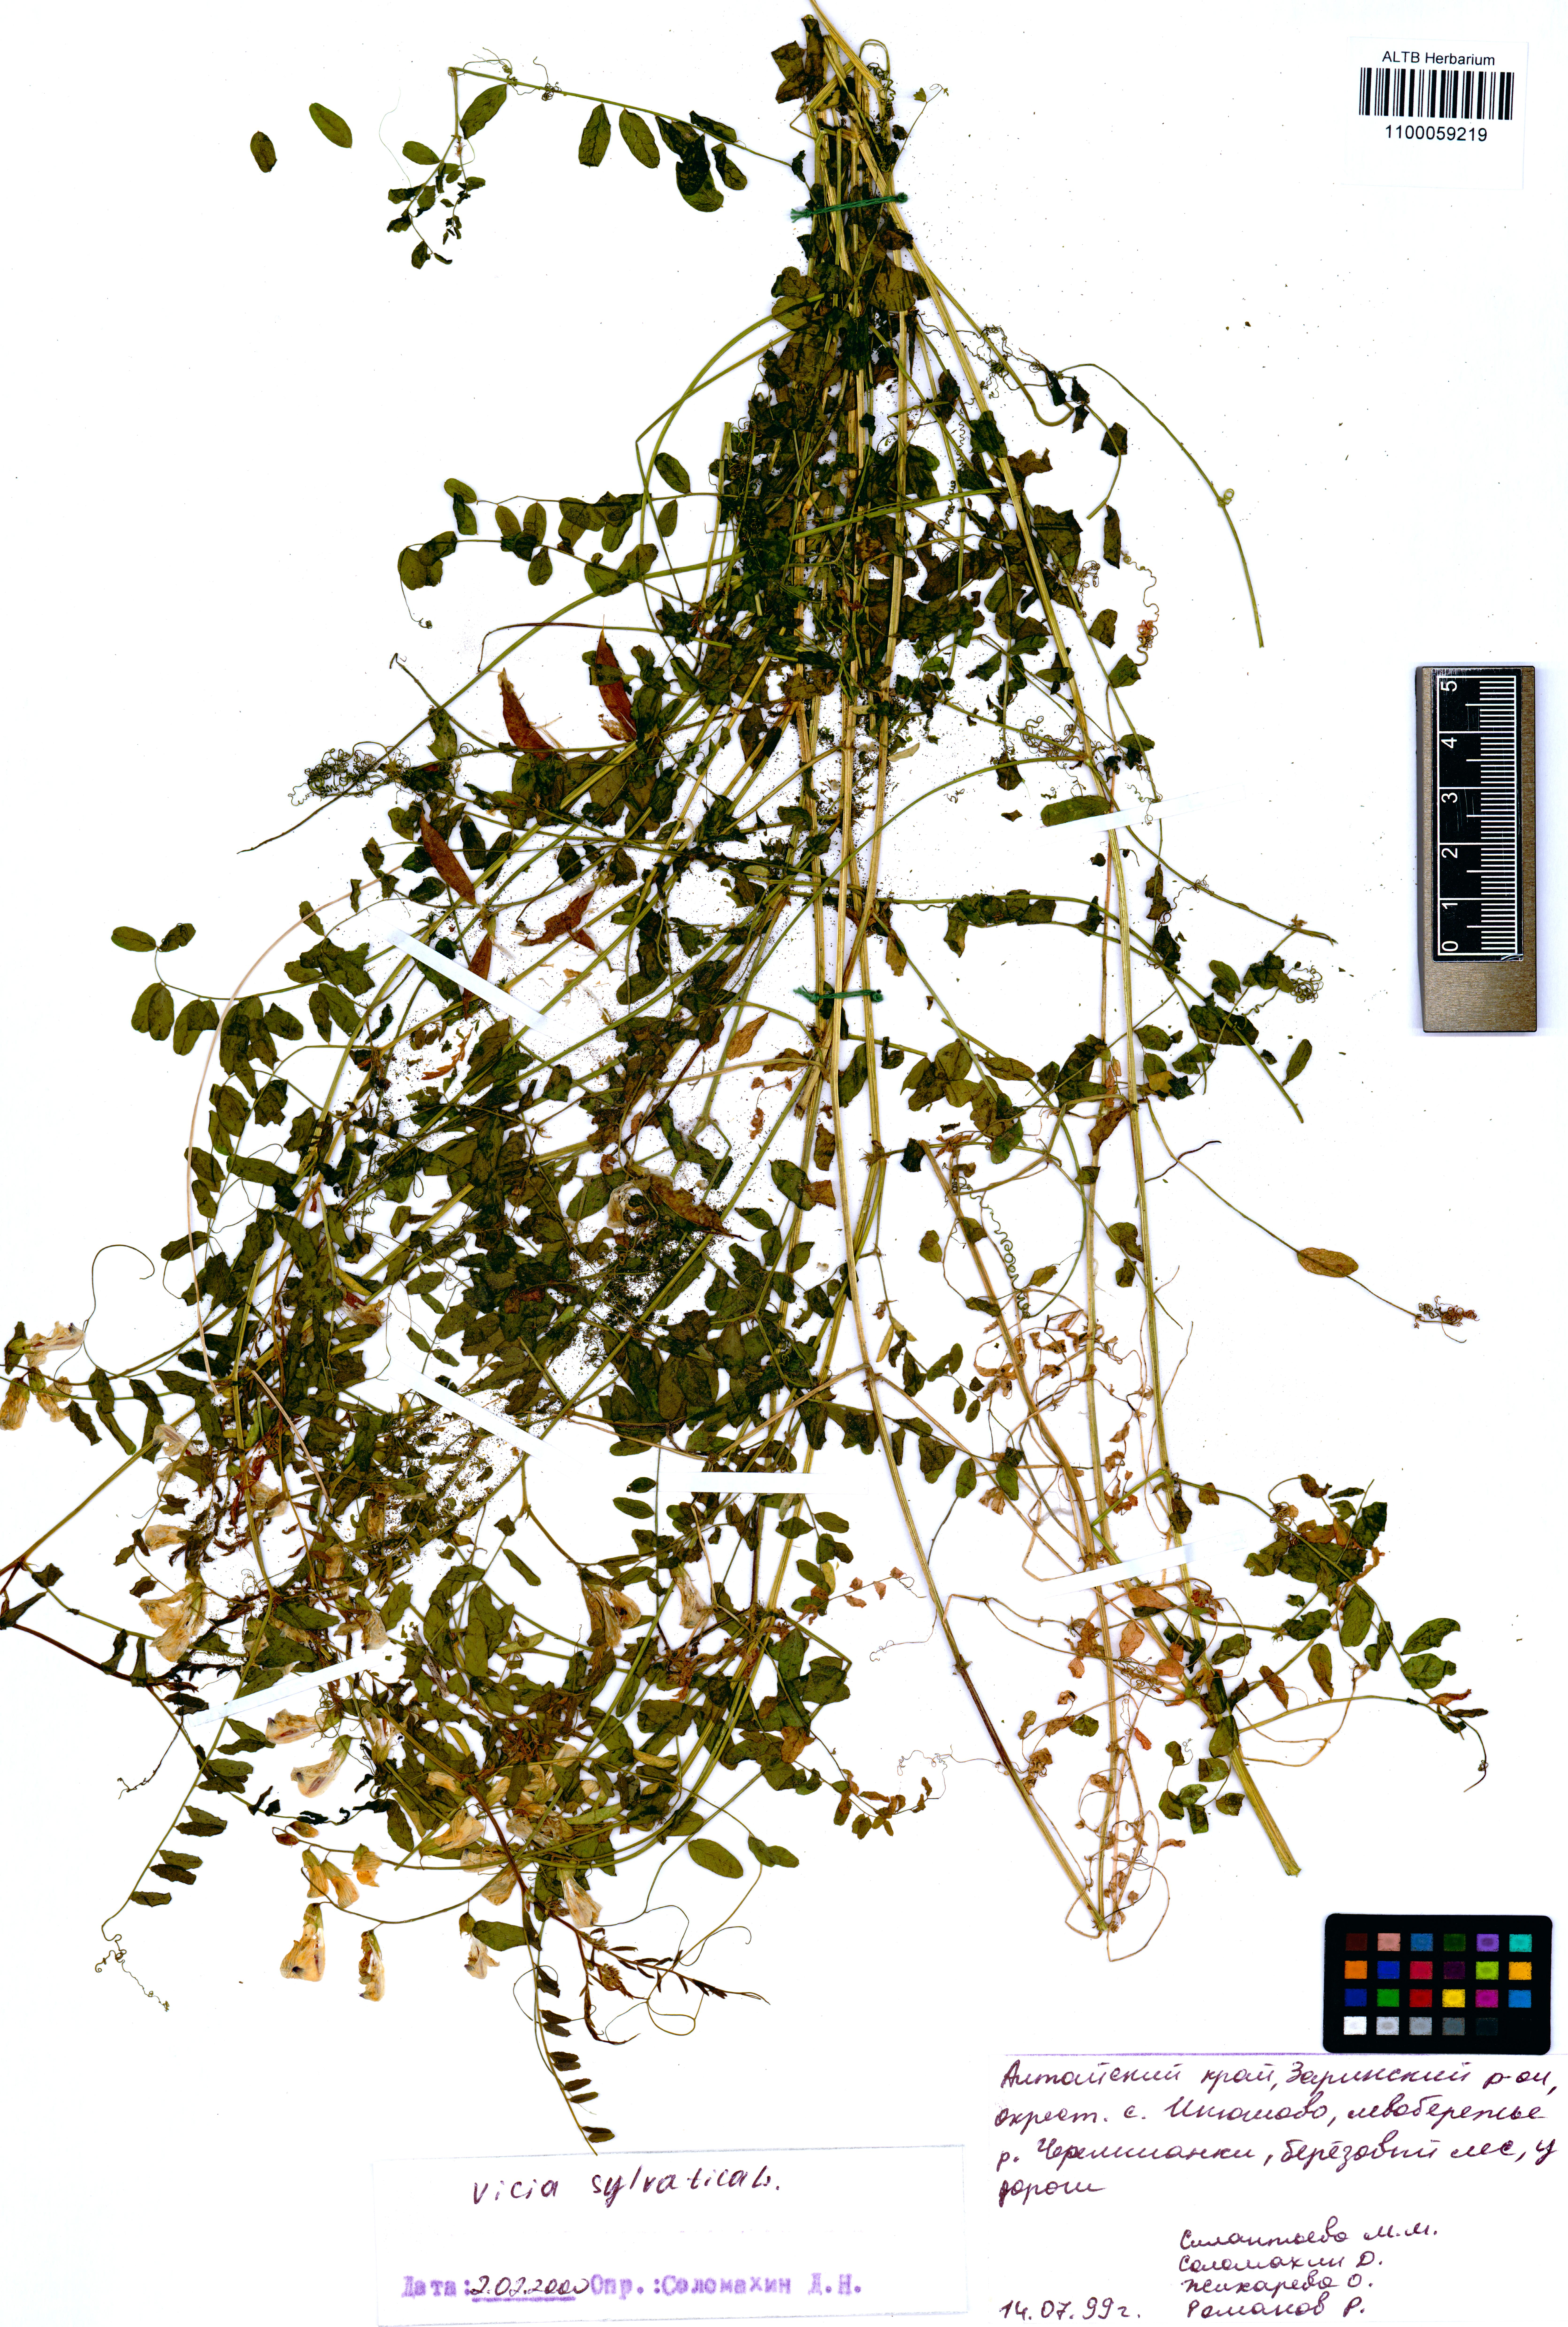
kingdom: Plantae
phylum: Tracheophyta
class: Magnoliopsida
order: Fabales
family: Fabaceae
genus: Vicia
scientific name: Vicia sylvatica
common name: Wood vetch
